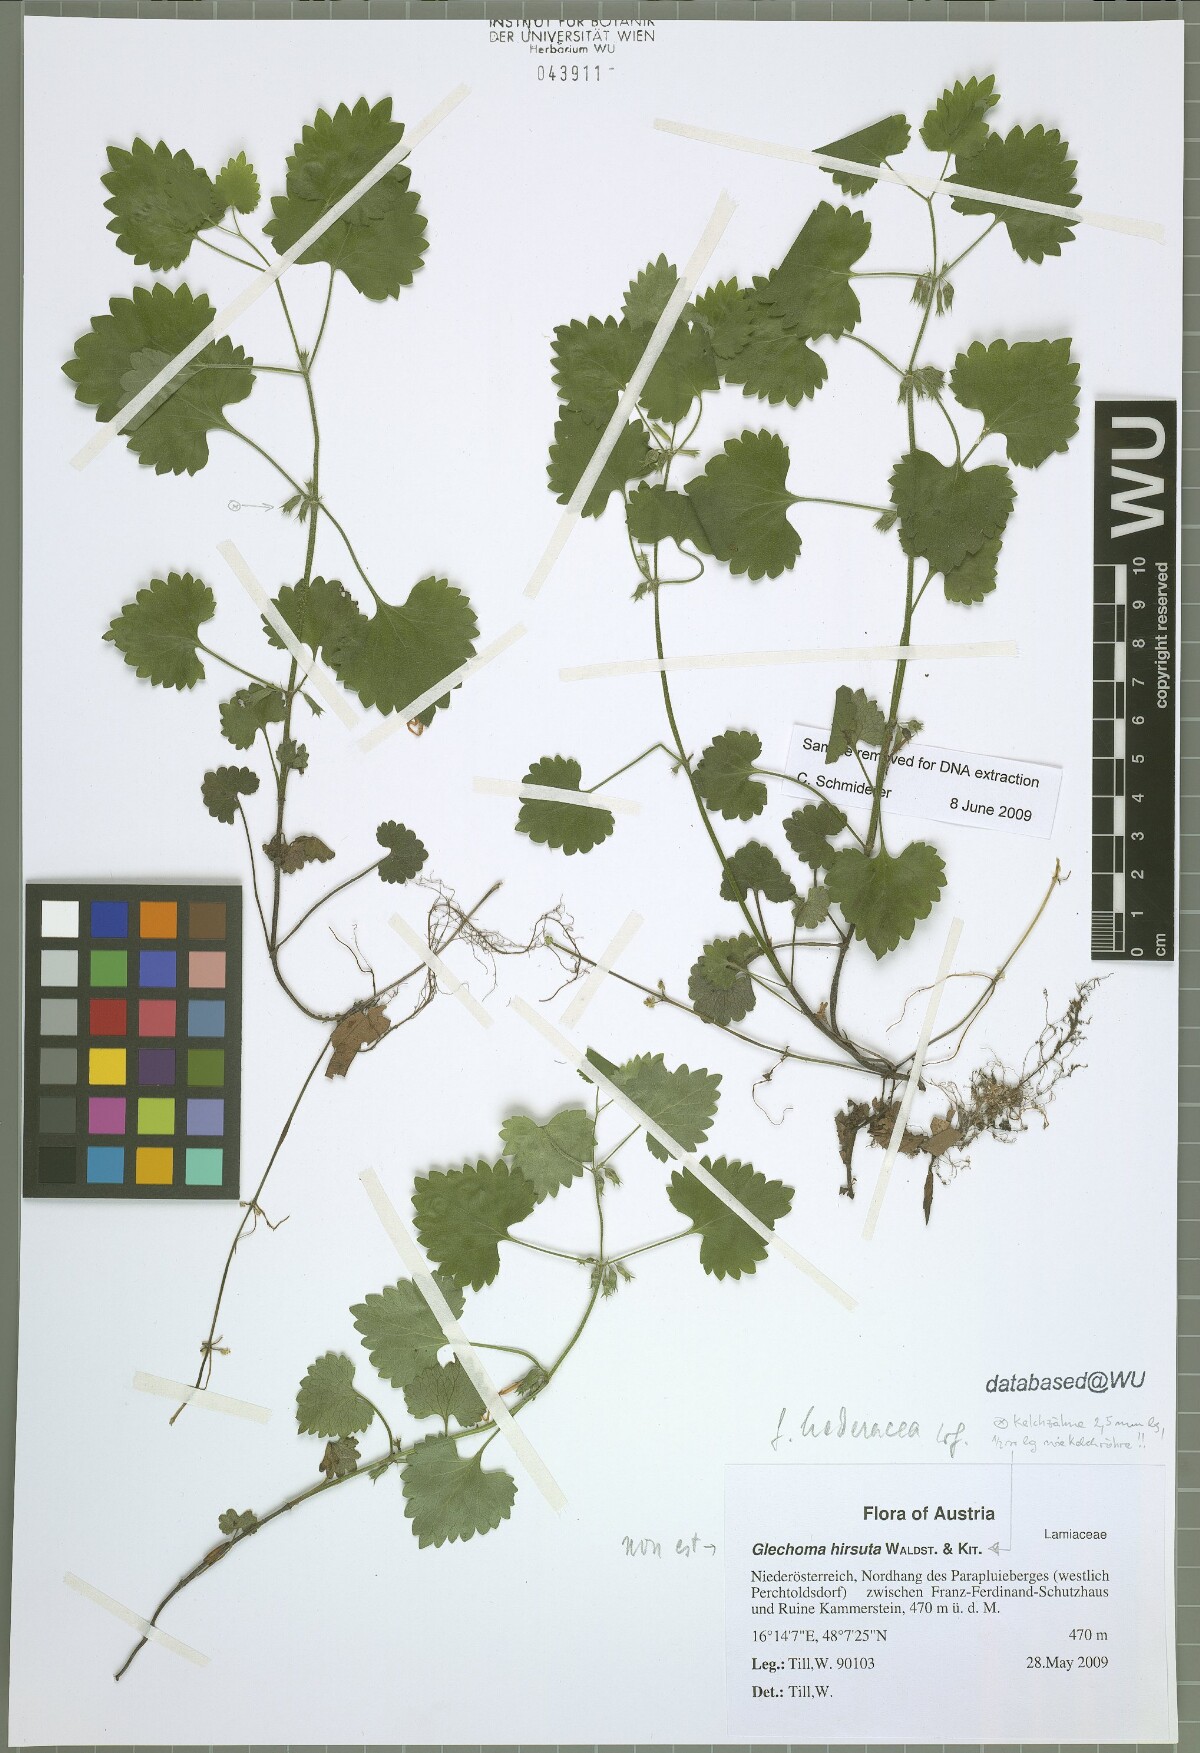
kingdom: Plantae
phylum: Tracheophyta
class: Magnoliopsida
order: Lamiales
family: Lamiaceae
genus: Glechoma
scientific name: Glechoma hederacea
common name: Ground ivy
